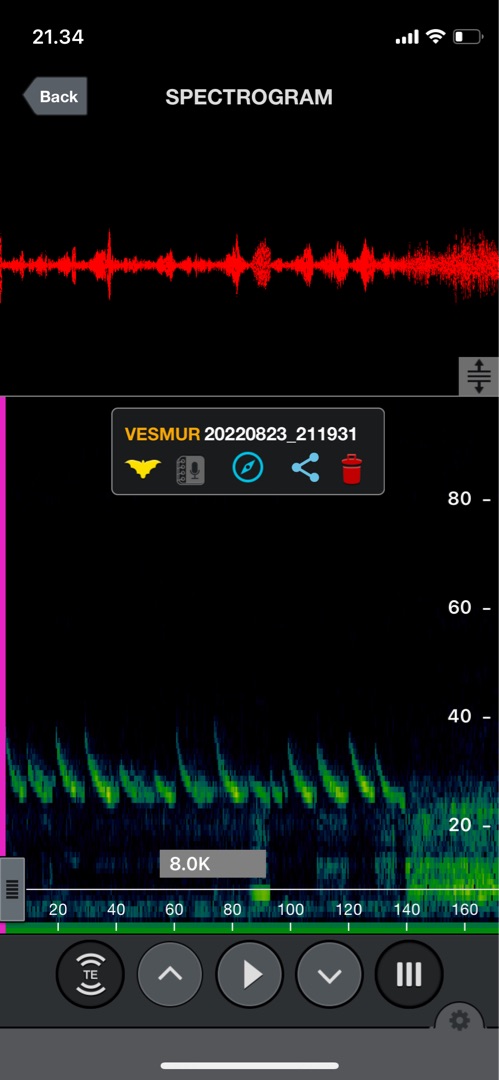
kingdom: Animalia
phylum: Chordata
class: Mammalia
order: Chiroptera
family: Vespertilionidae
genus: Vespertilio
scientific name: Vespertilio murinus
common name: Skimmelflagermus
